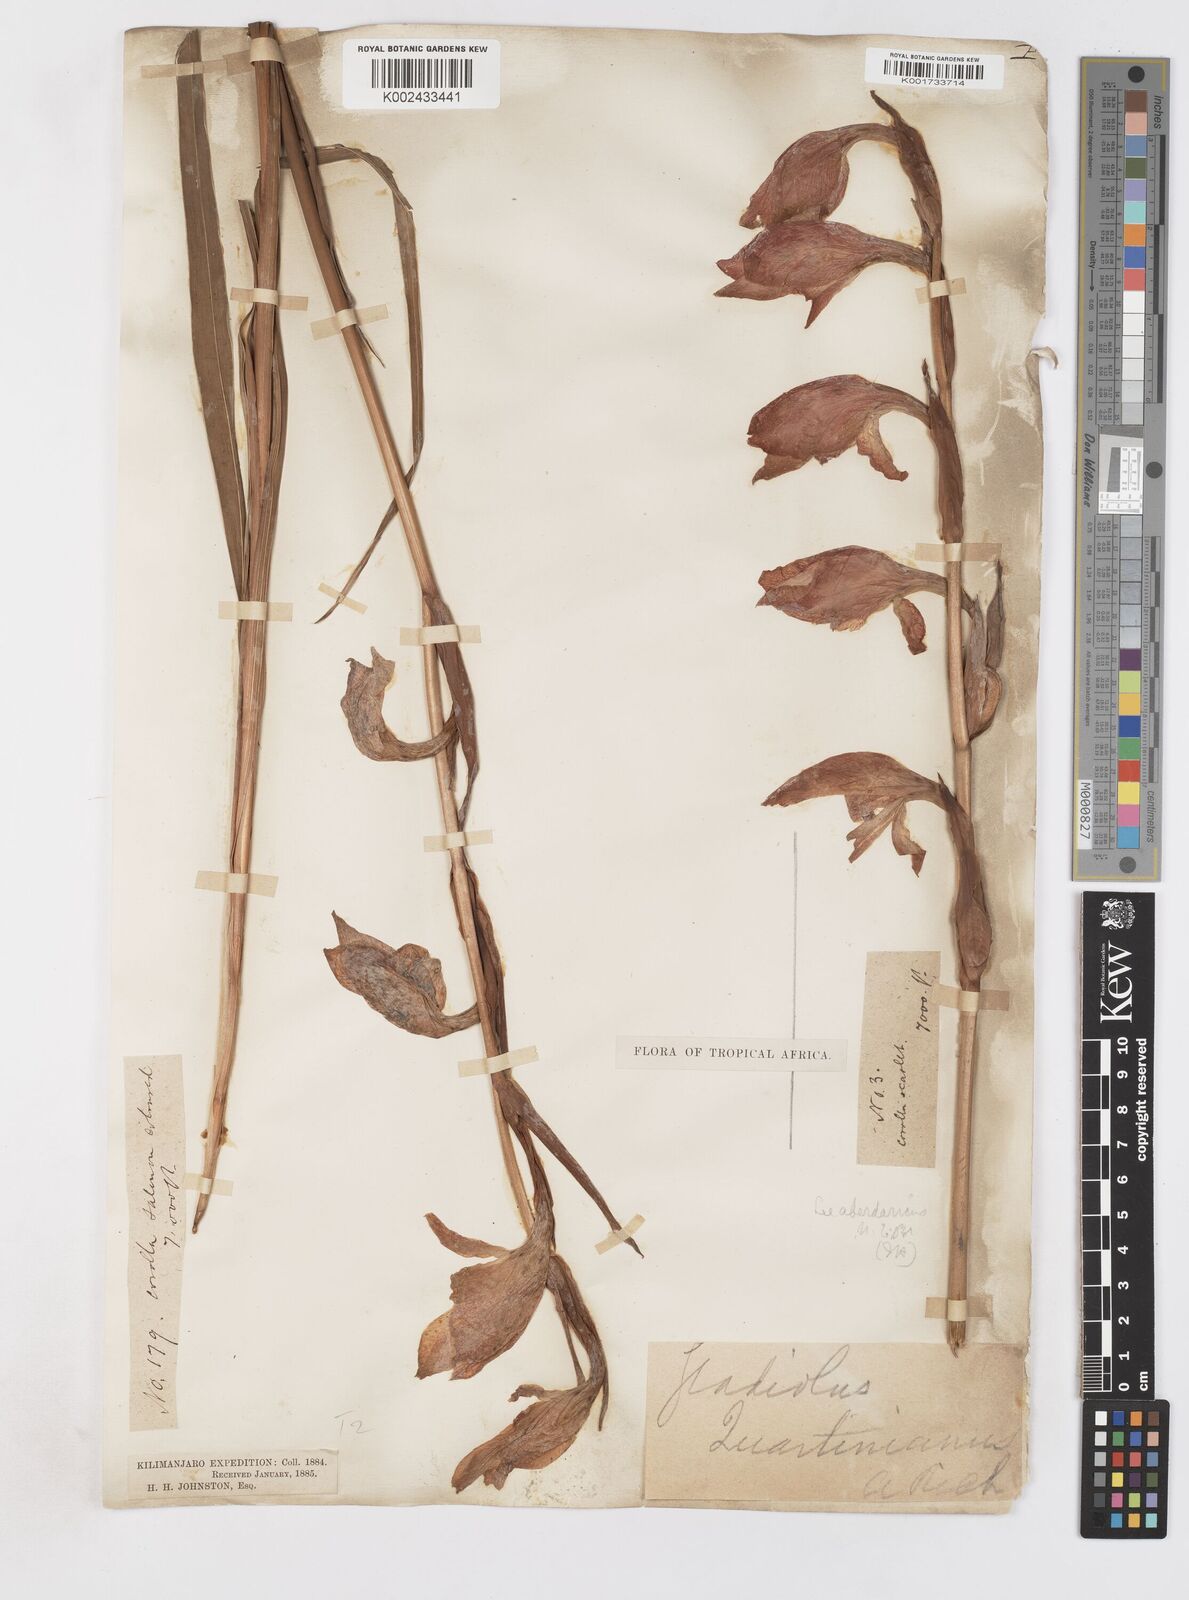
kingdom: Plantae
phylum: Tracheophyta
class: Liliopsida
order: Asparagales
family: Iridaceae
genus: Gladiolus
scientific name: Gladiolus dalenii
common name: Cornflag
